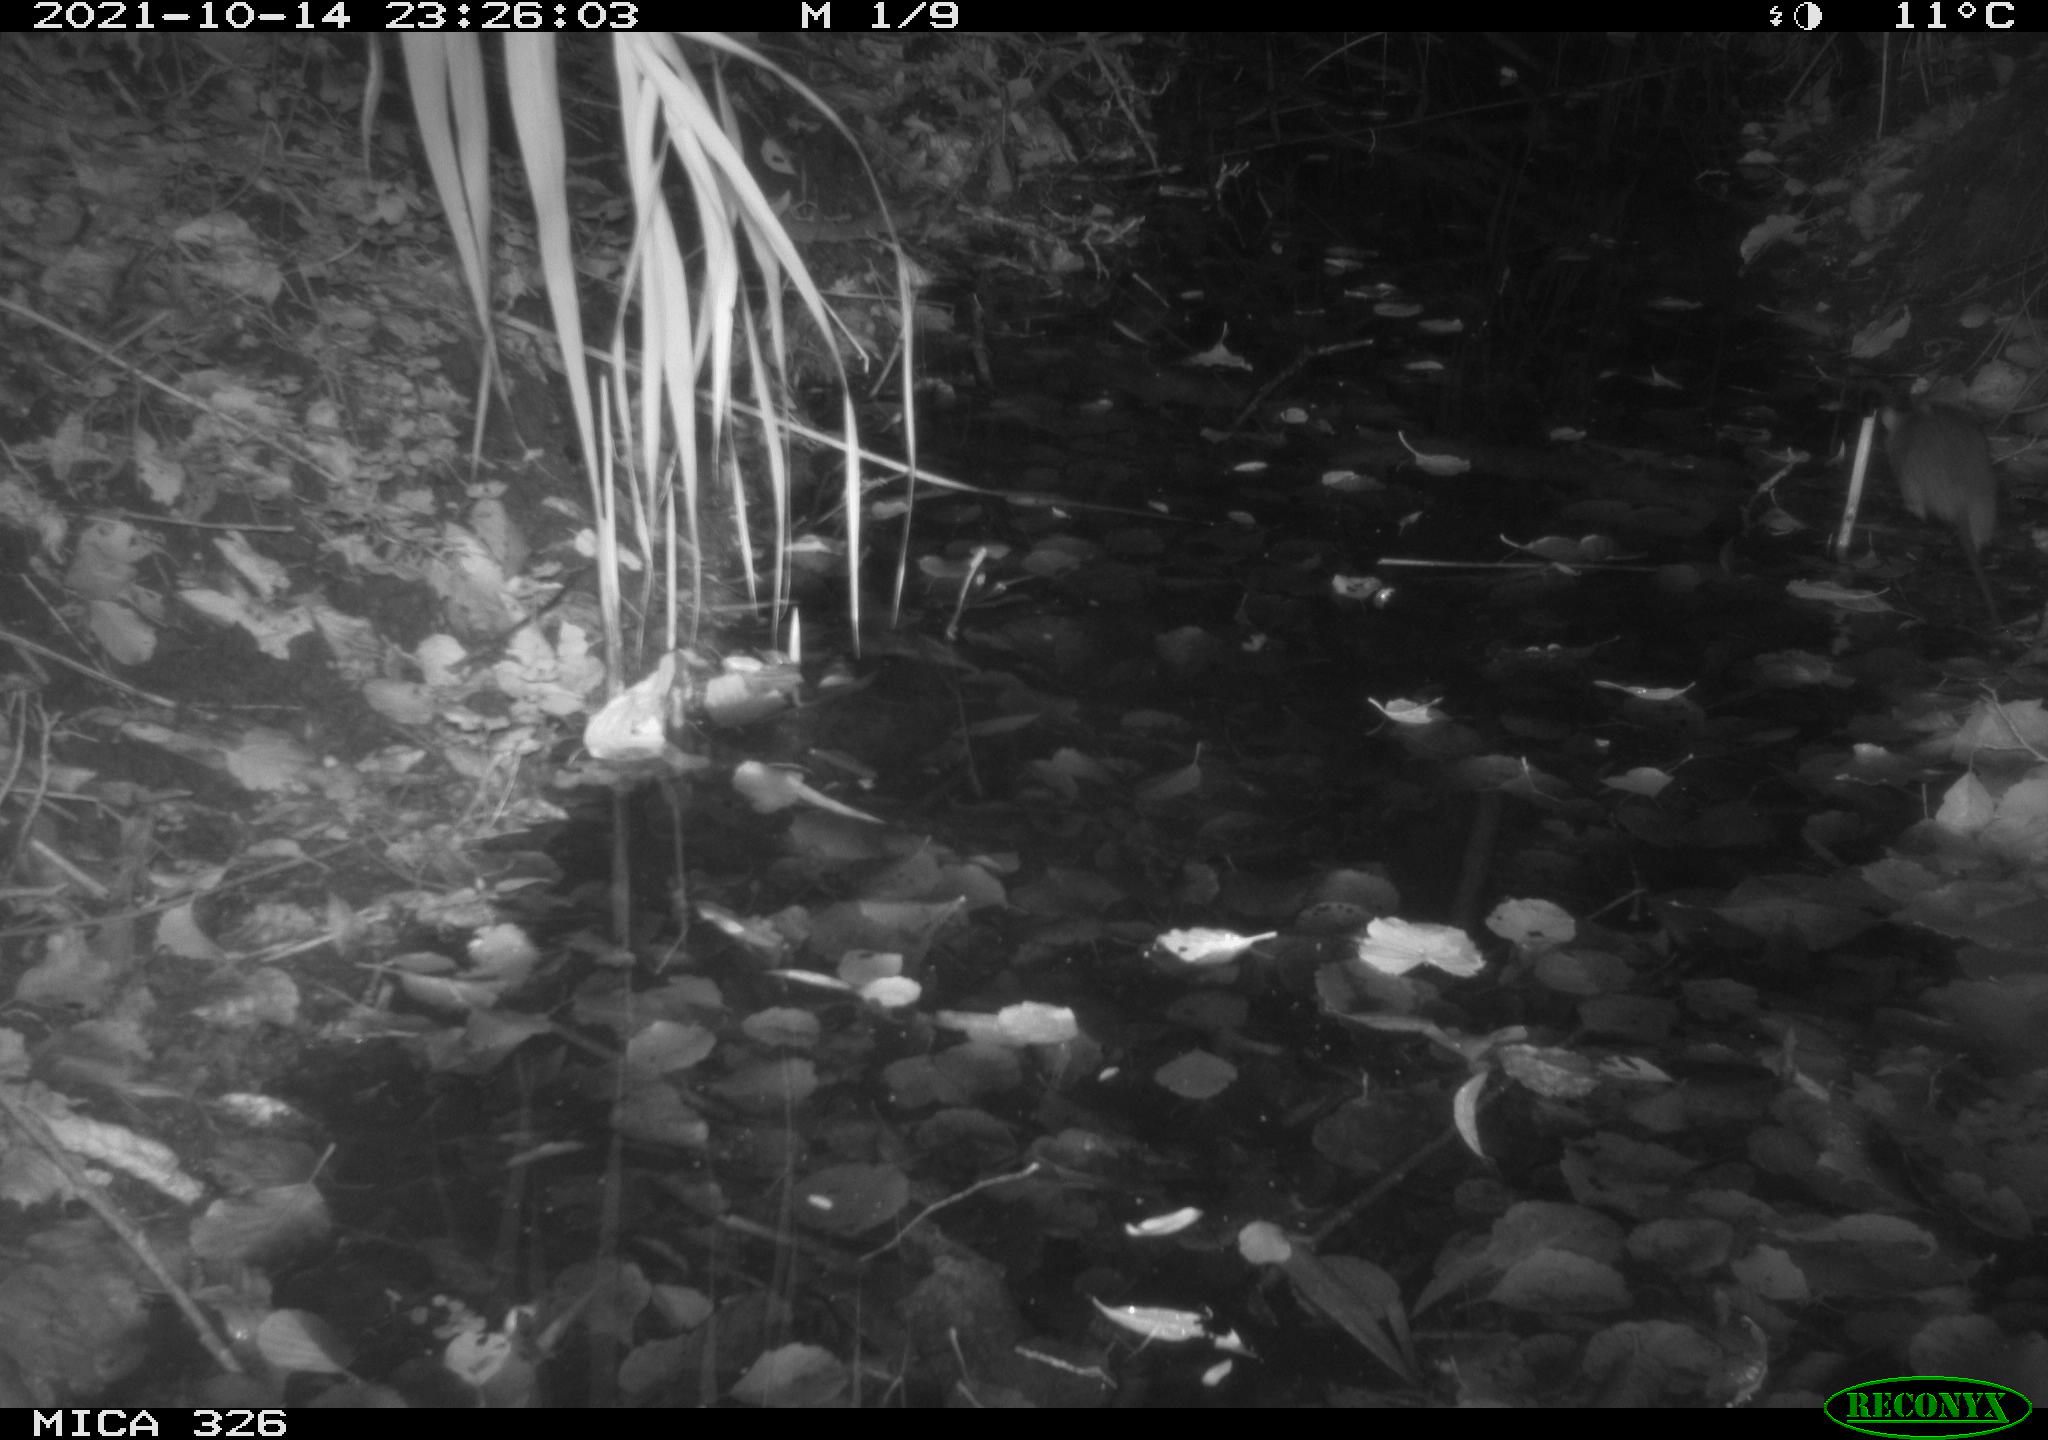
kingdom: Animalia
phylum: Chordata
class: Mammalia
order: Rodentia
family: Muridae
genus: Rattus
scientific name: Rattus norvegicus
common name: Brown rat
